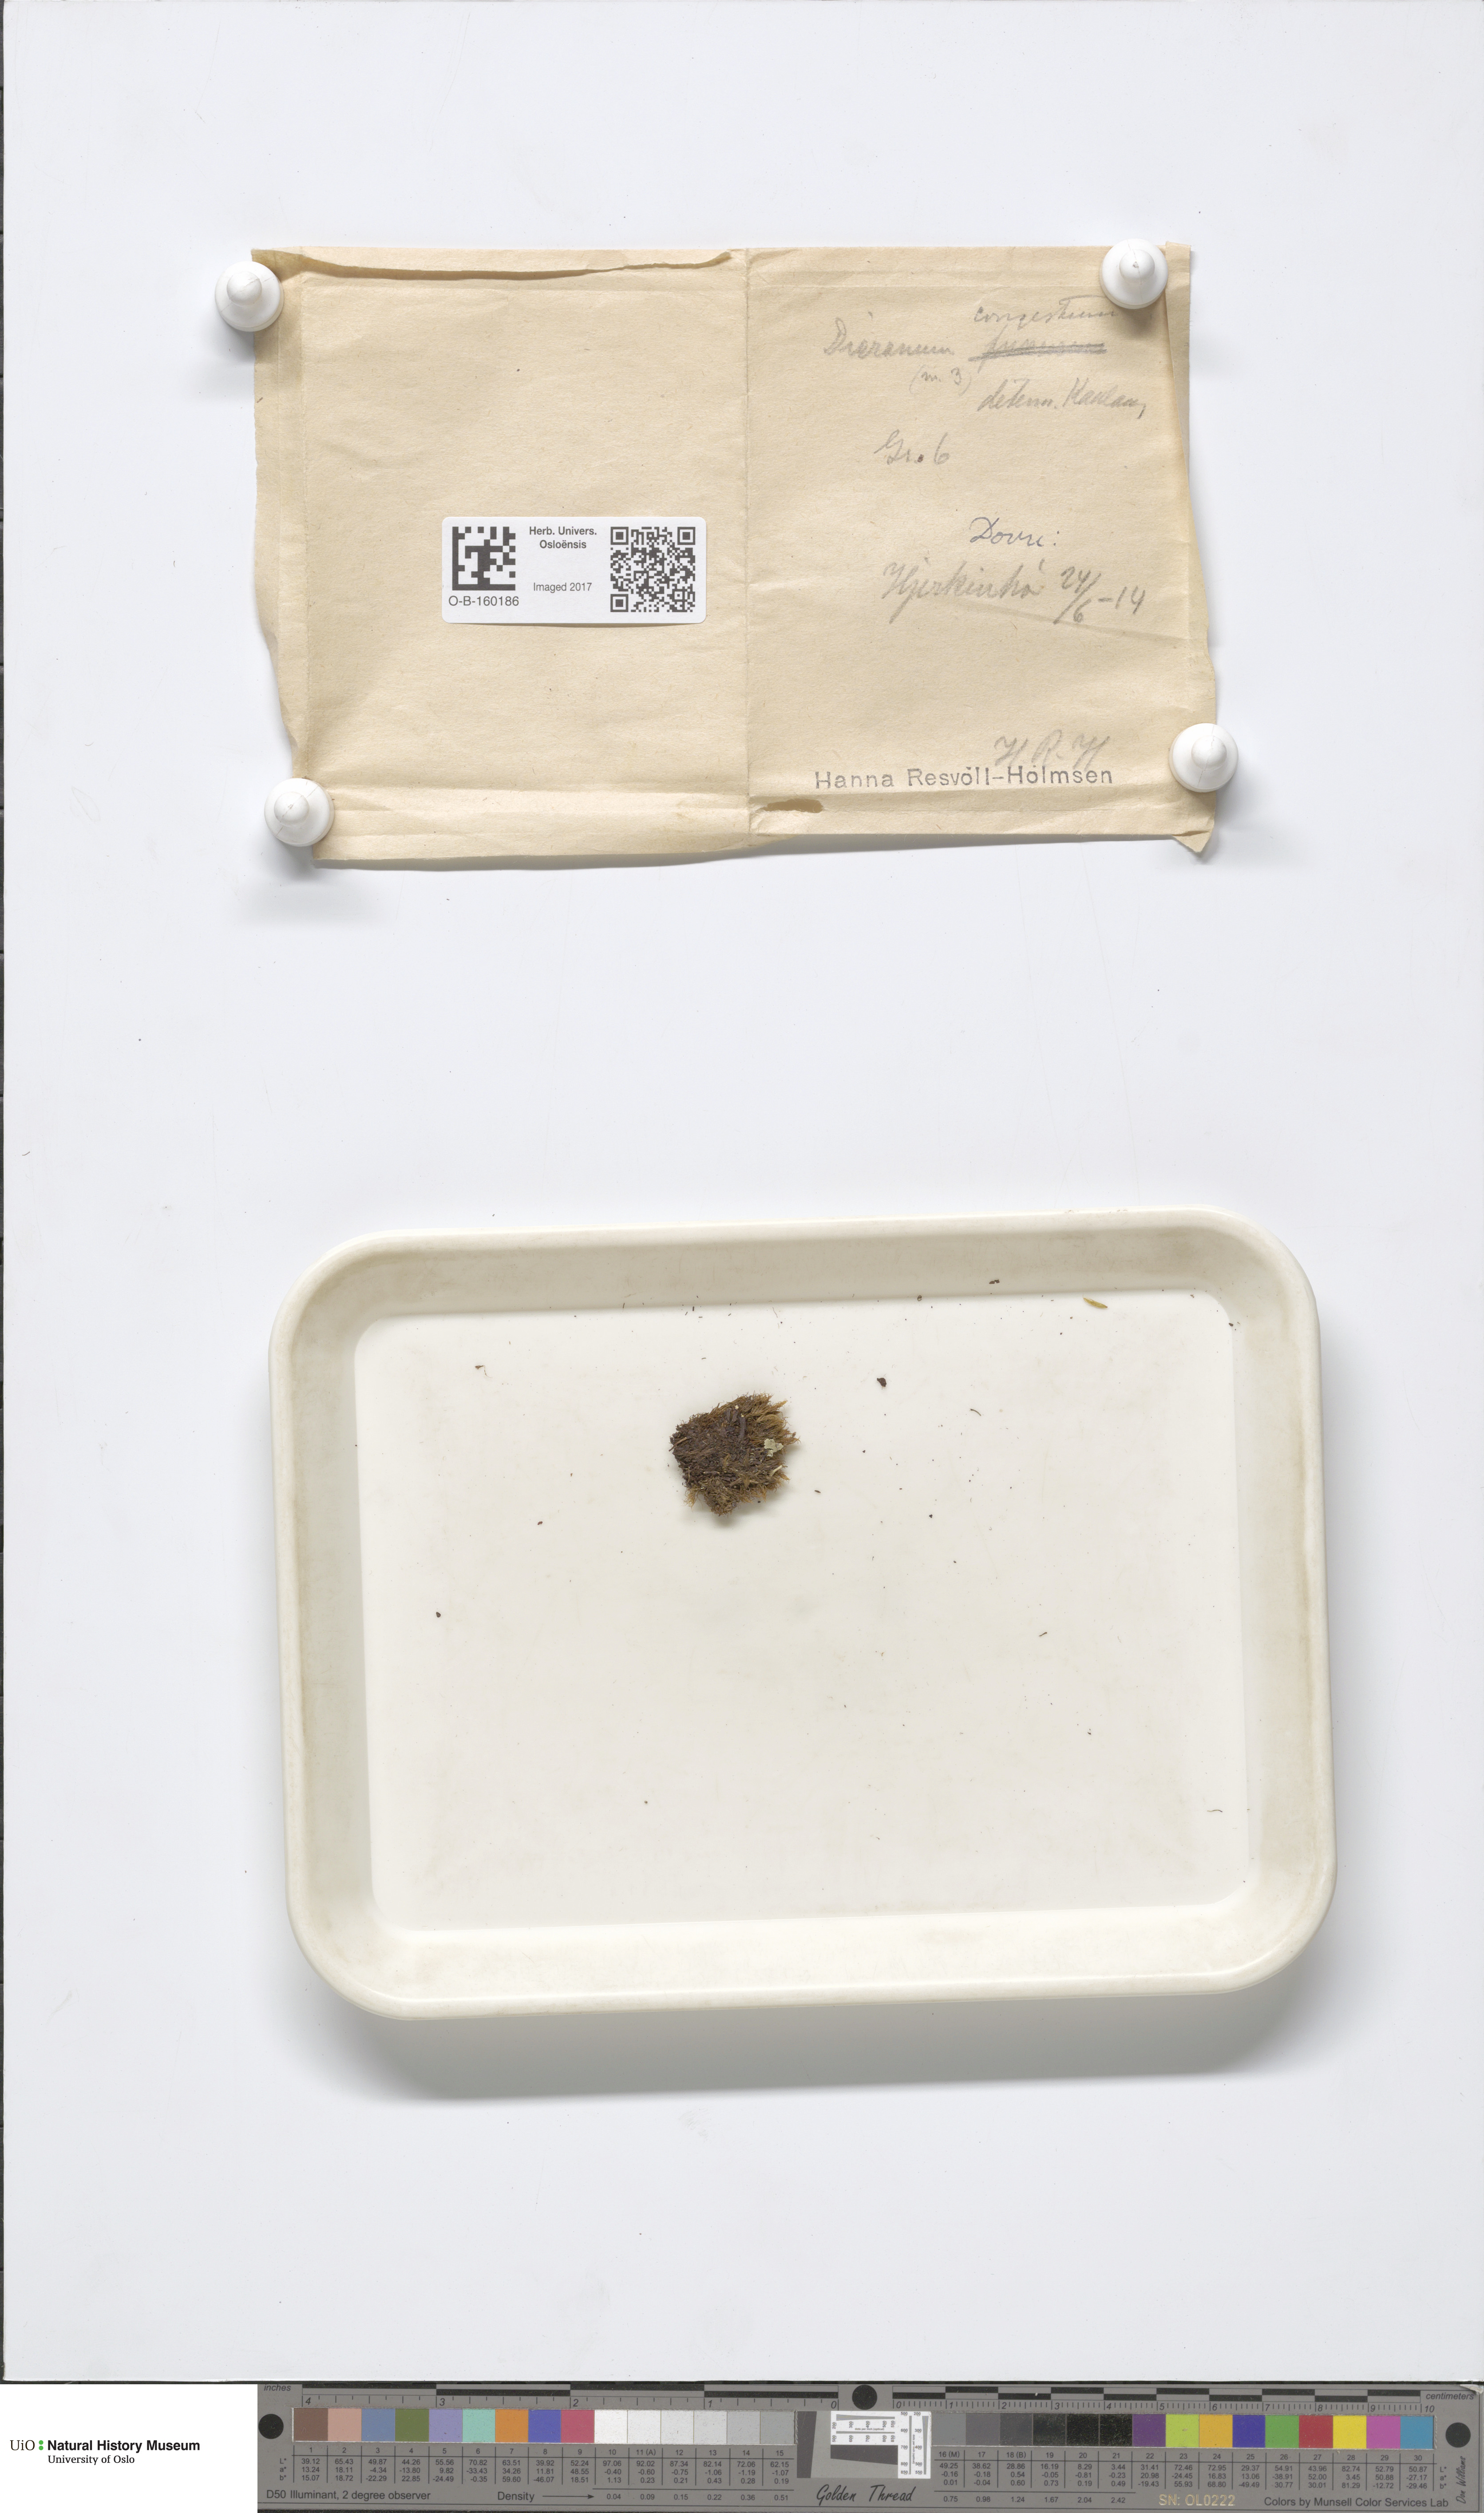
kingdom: Plantae
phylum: Bryophyta
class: Bryopsida
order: Dicranales
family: Dicranaceae
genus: Dicranum
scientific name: Dicranum flexicaule
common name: Bendy heron s-bill moss
